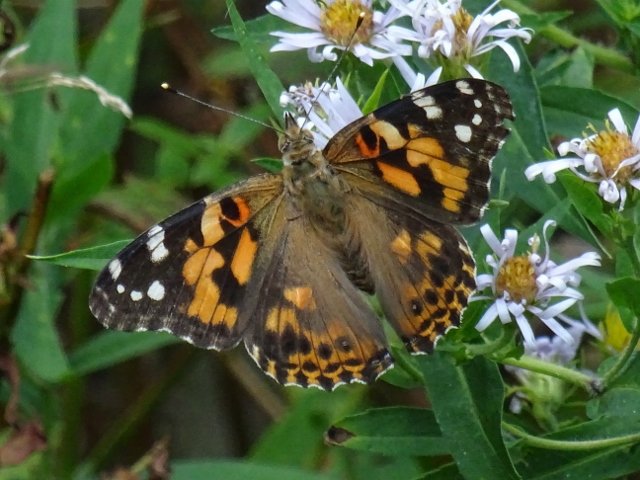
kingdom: Animalia
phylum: Arthropoda
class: Insecta
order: Lepidoptera
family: Nymphalidae
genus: Vanessa
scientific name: Vanessa cardui
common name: Painted Lady
